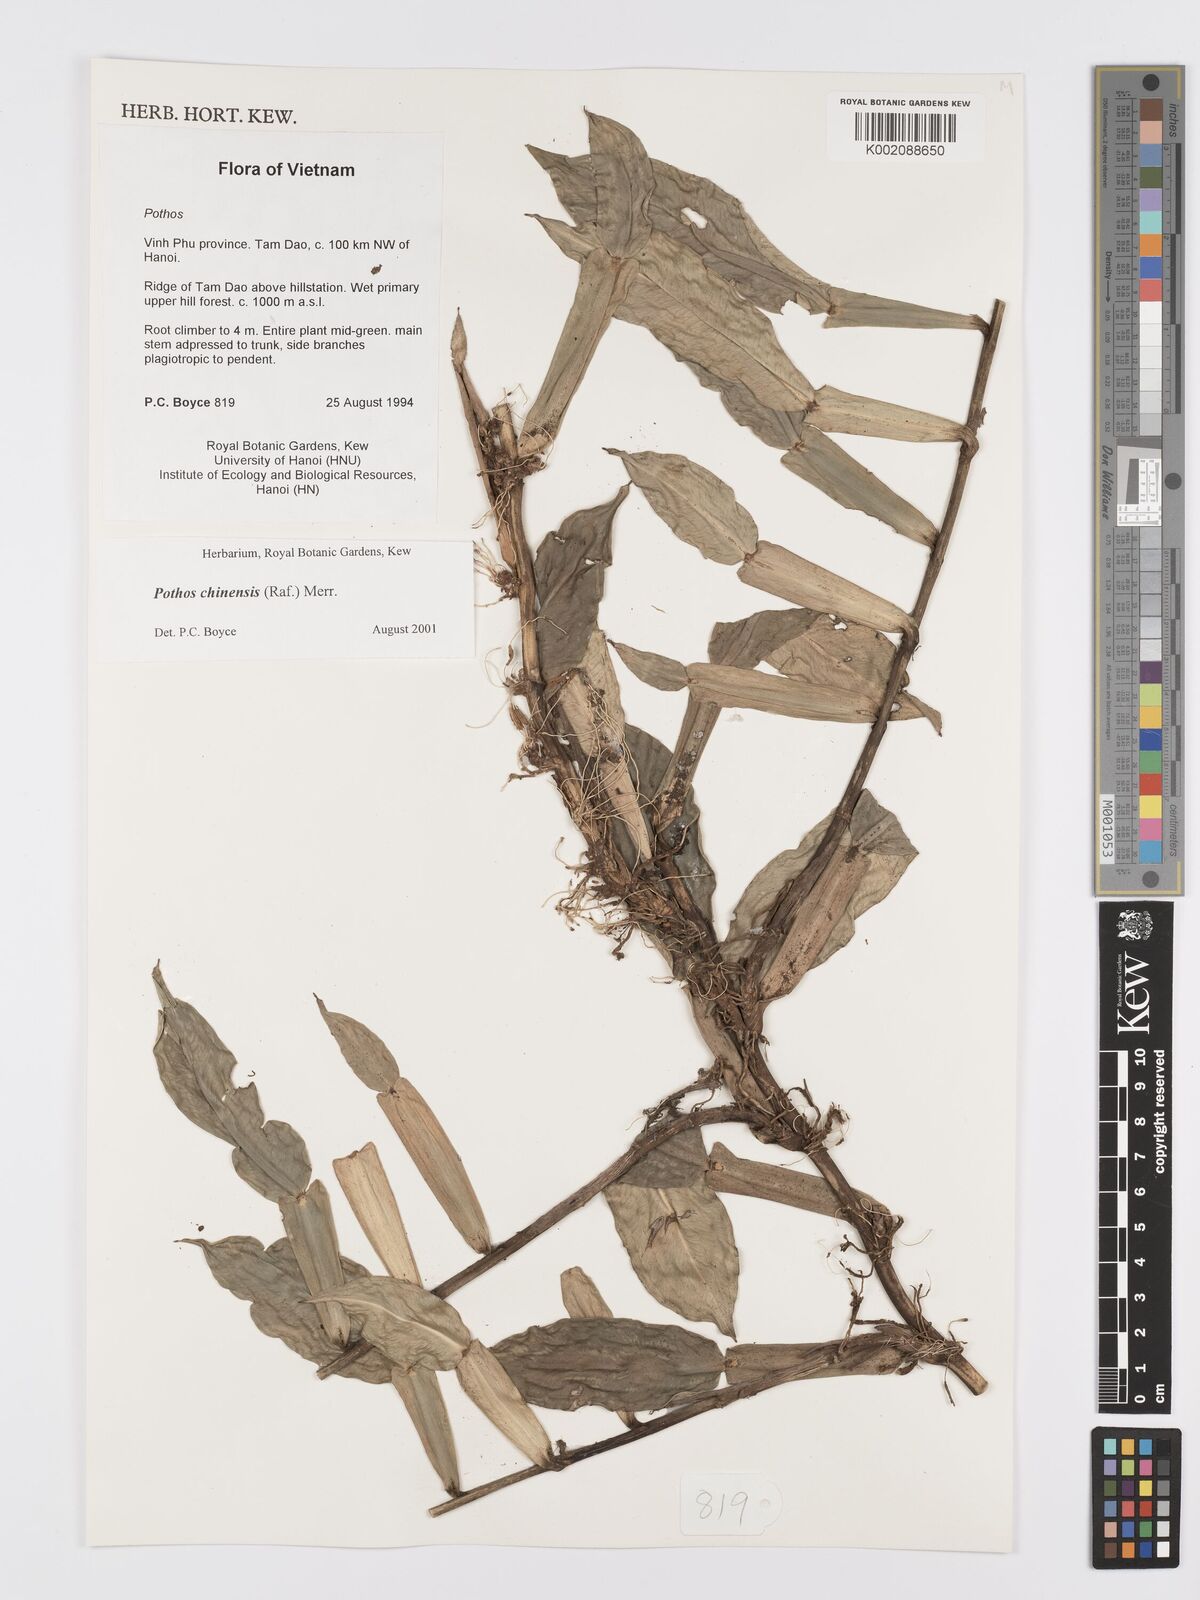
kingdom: Plantae
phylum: Tracheophyta
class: Liliopsida
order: Alismatales
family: Araceae
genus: Pothos
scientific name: Pothos chinensis
